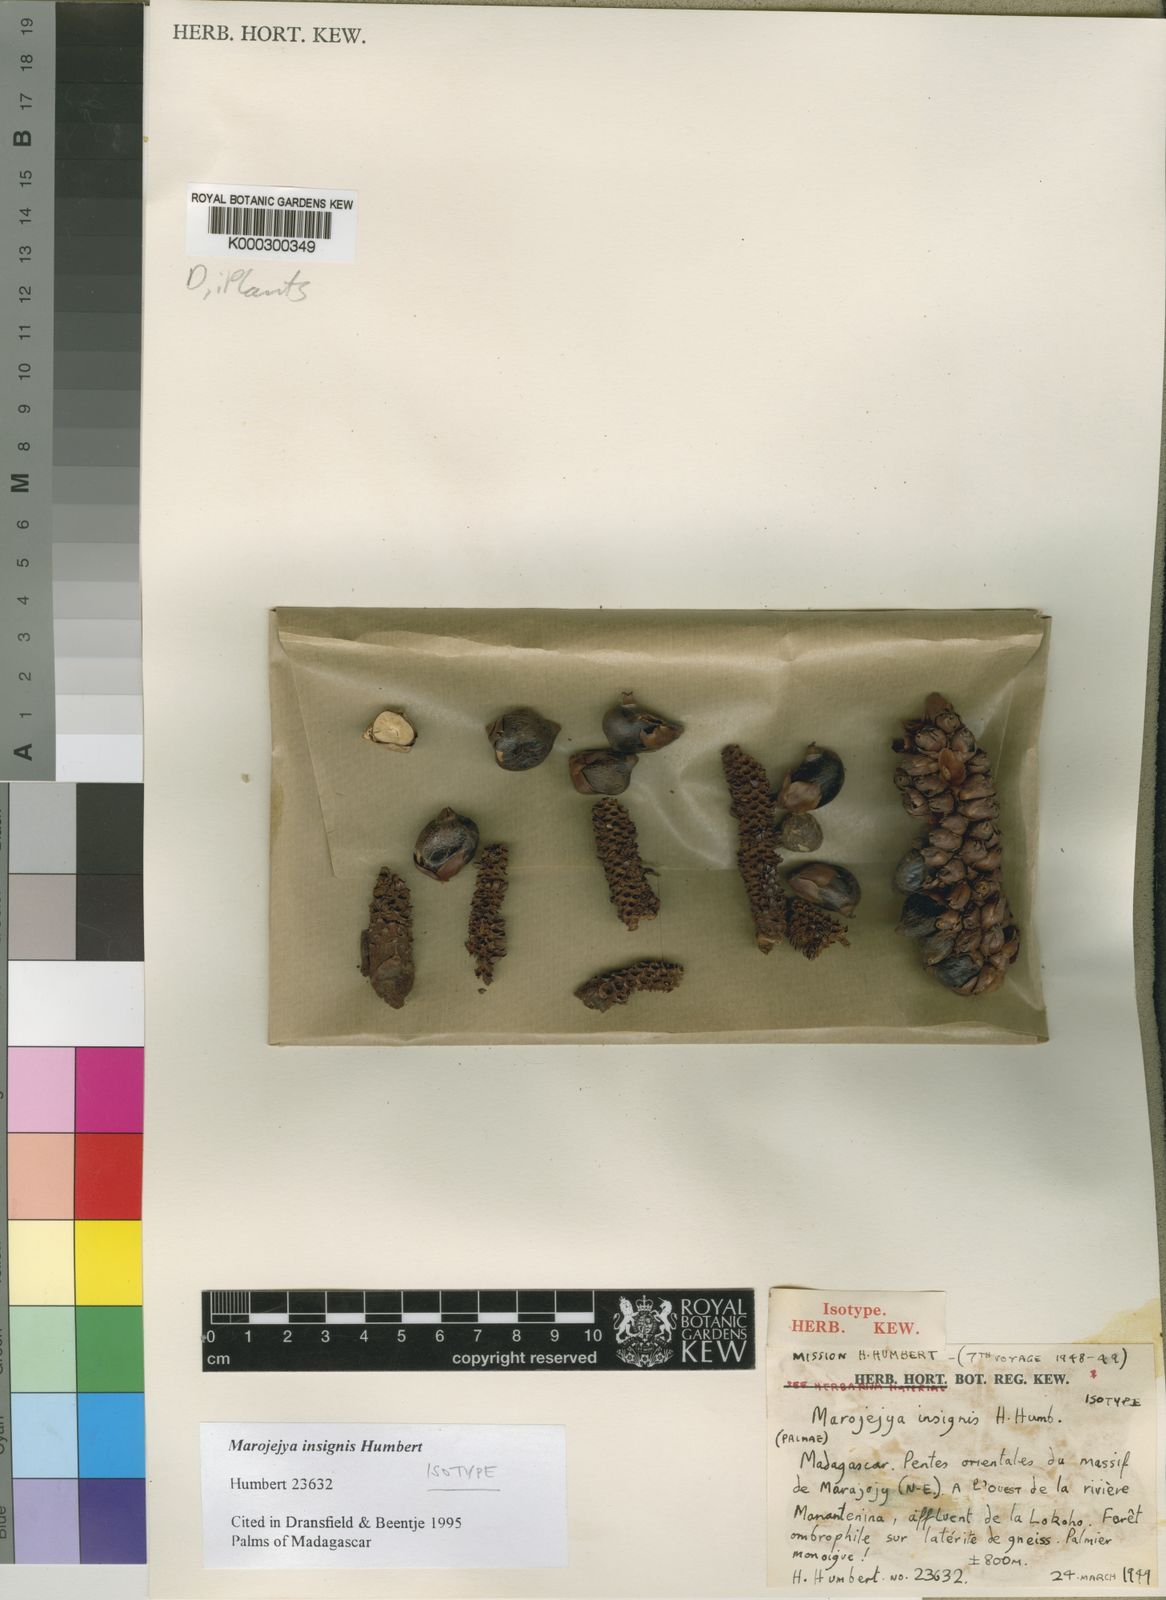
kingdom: Plantae
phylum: Tracheophyta
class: Liliopsida
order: Arecales
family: Arecaceae
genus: Marojejya
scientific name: Marojejya insignis
